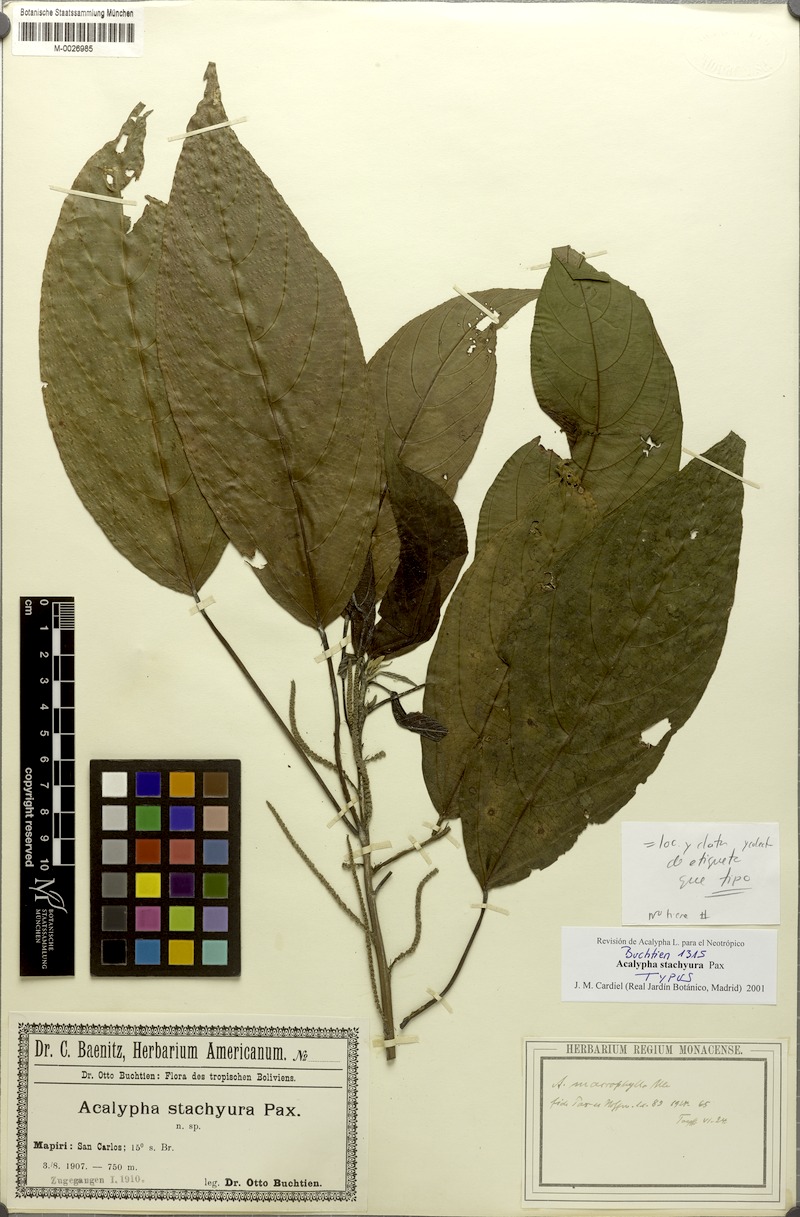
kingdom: Plantae
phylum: Tracheophyta
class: Magnoliopsida
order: Malpighiales
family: Euphorbiaceae
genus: Acalypha
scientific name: Acalypha stachyura
